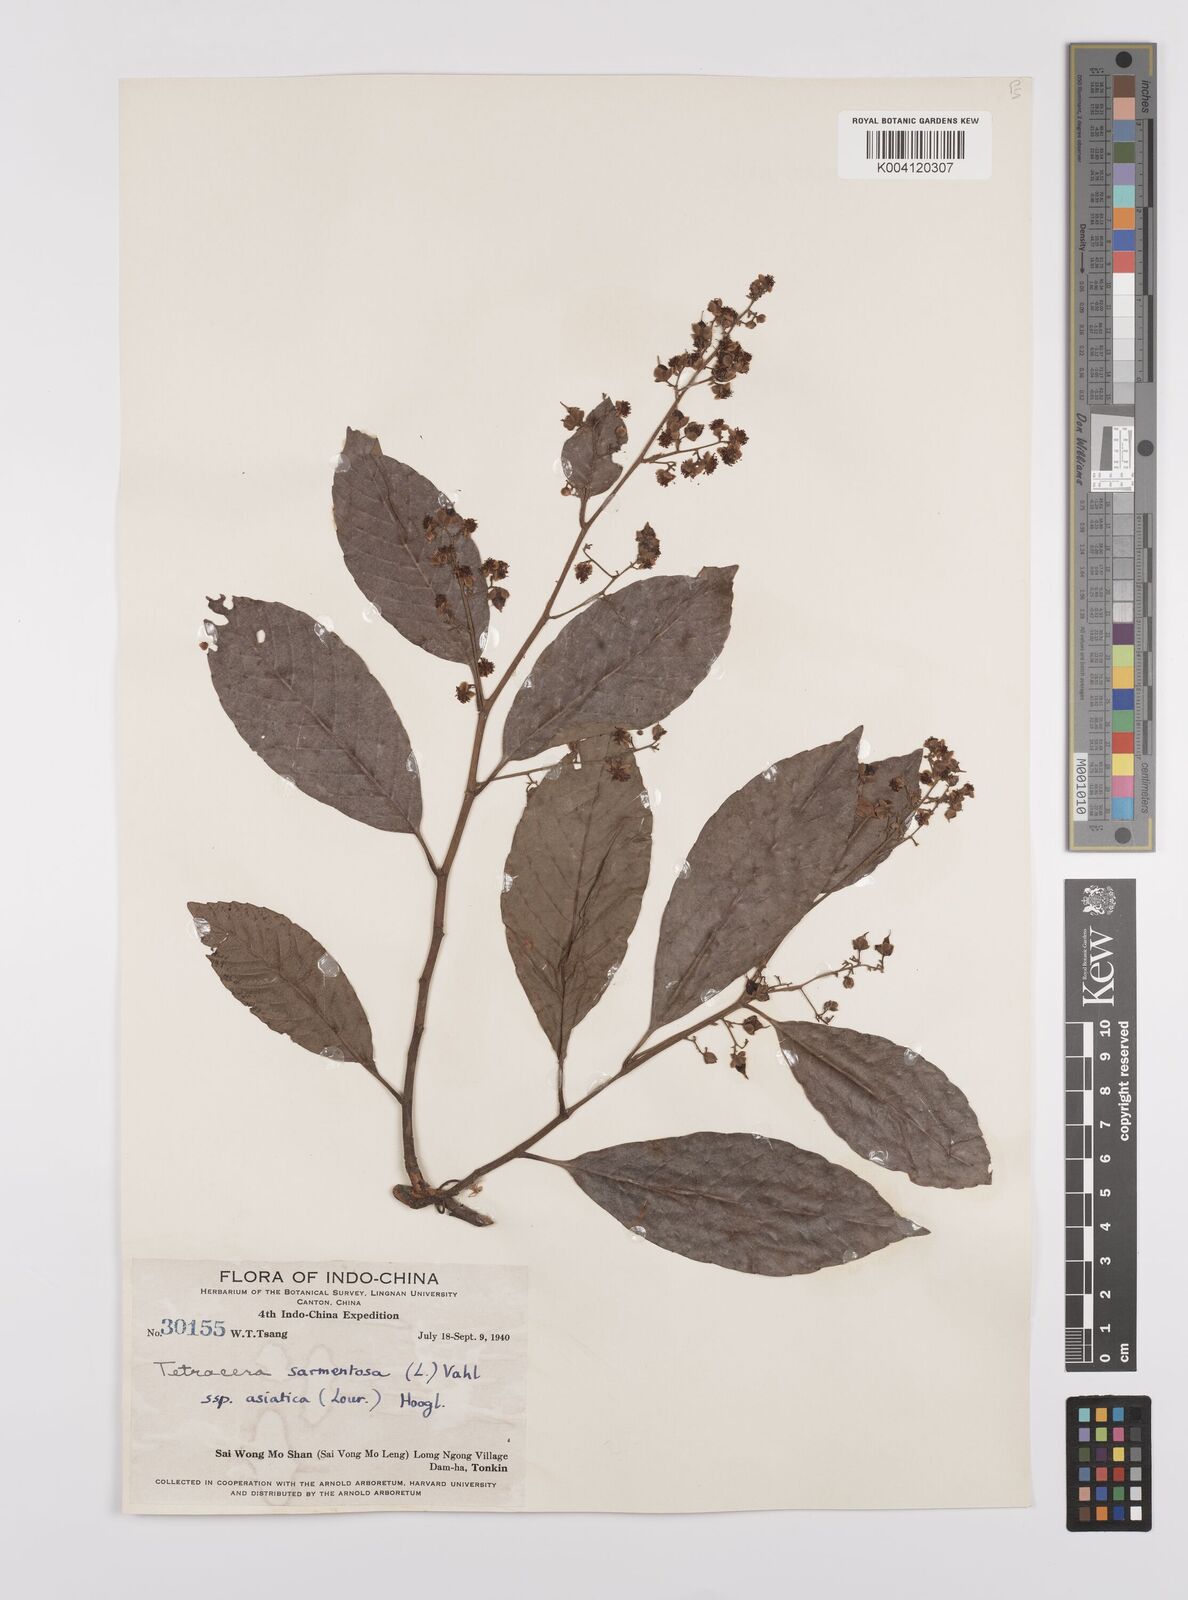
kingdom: Plantae
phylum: Tracheophyta
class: Magnoliopsida
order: Dilleniales
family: Dilleniaceae
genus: Tetracera
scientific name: Tetracera sarmentosa
